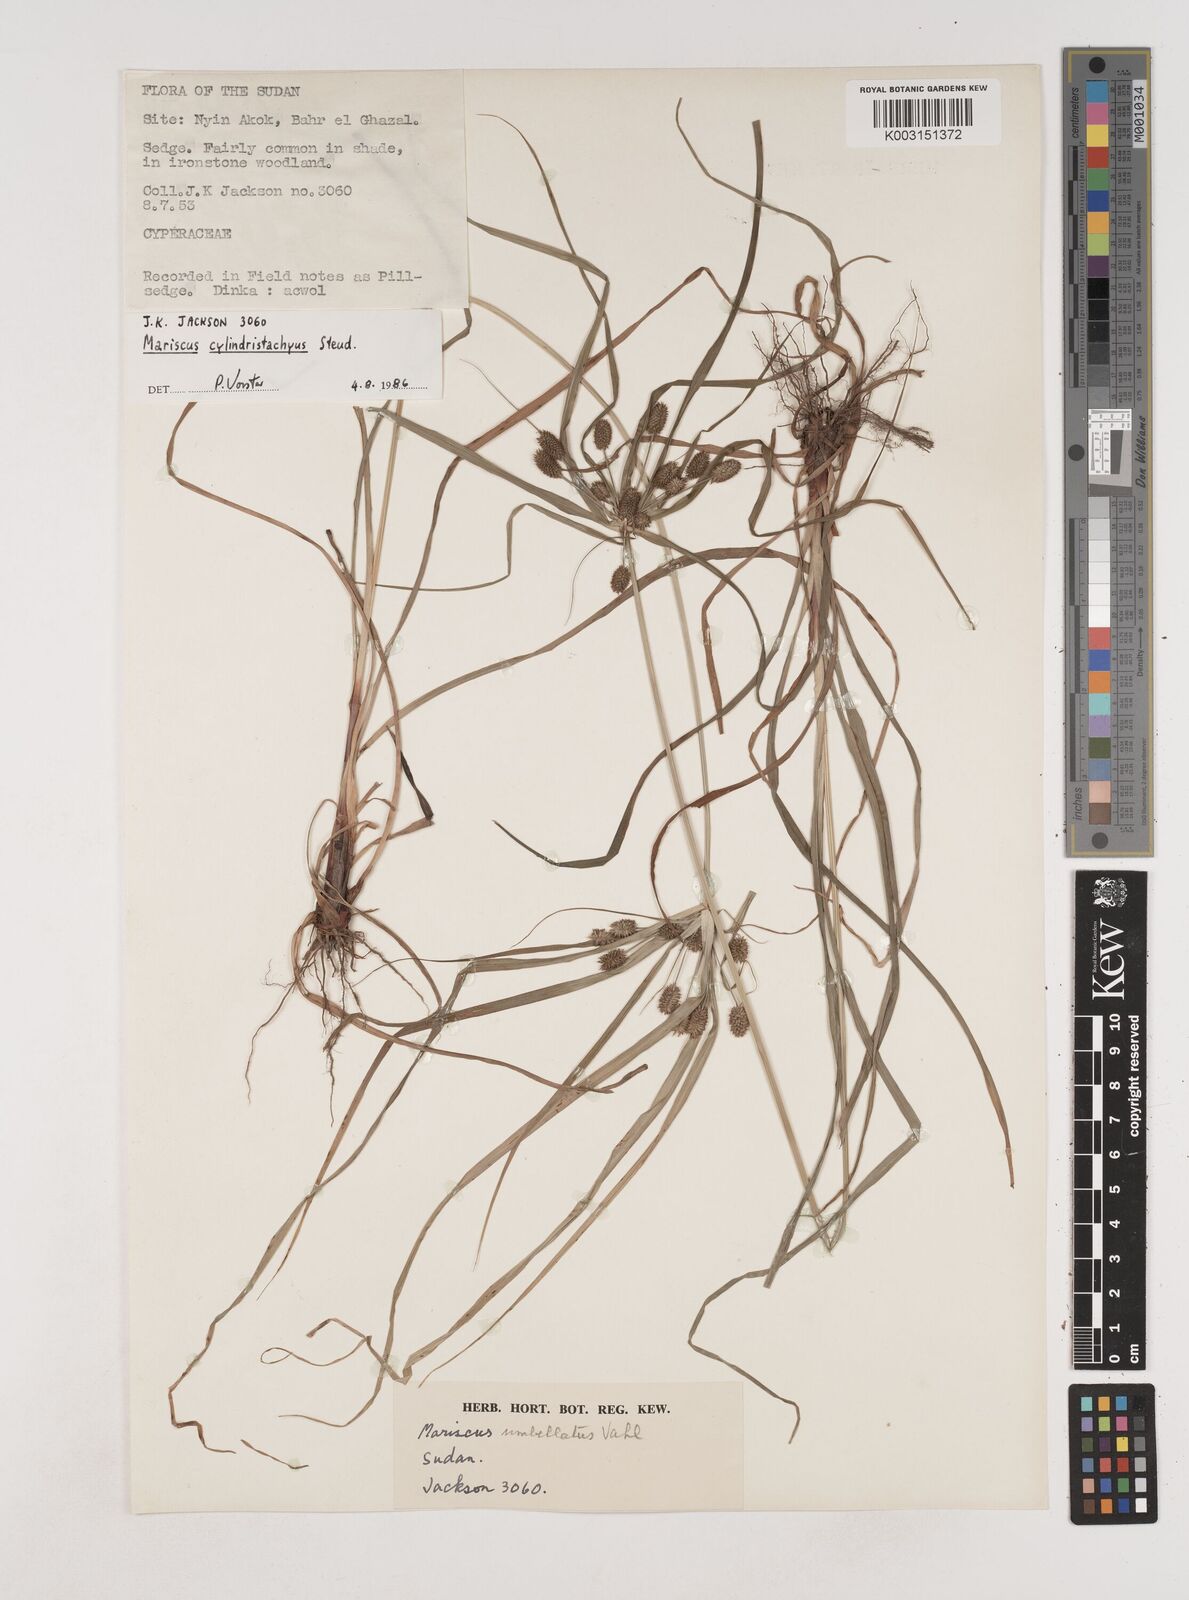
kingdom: Plantae
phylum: Tracheophyta
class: Liliopsida
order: Poales
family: Cyperaceae
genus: Cyperus
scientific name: Cyperus cyperoides
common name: Pacific island flat sedge
